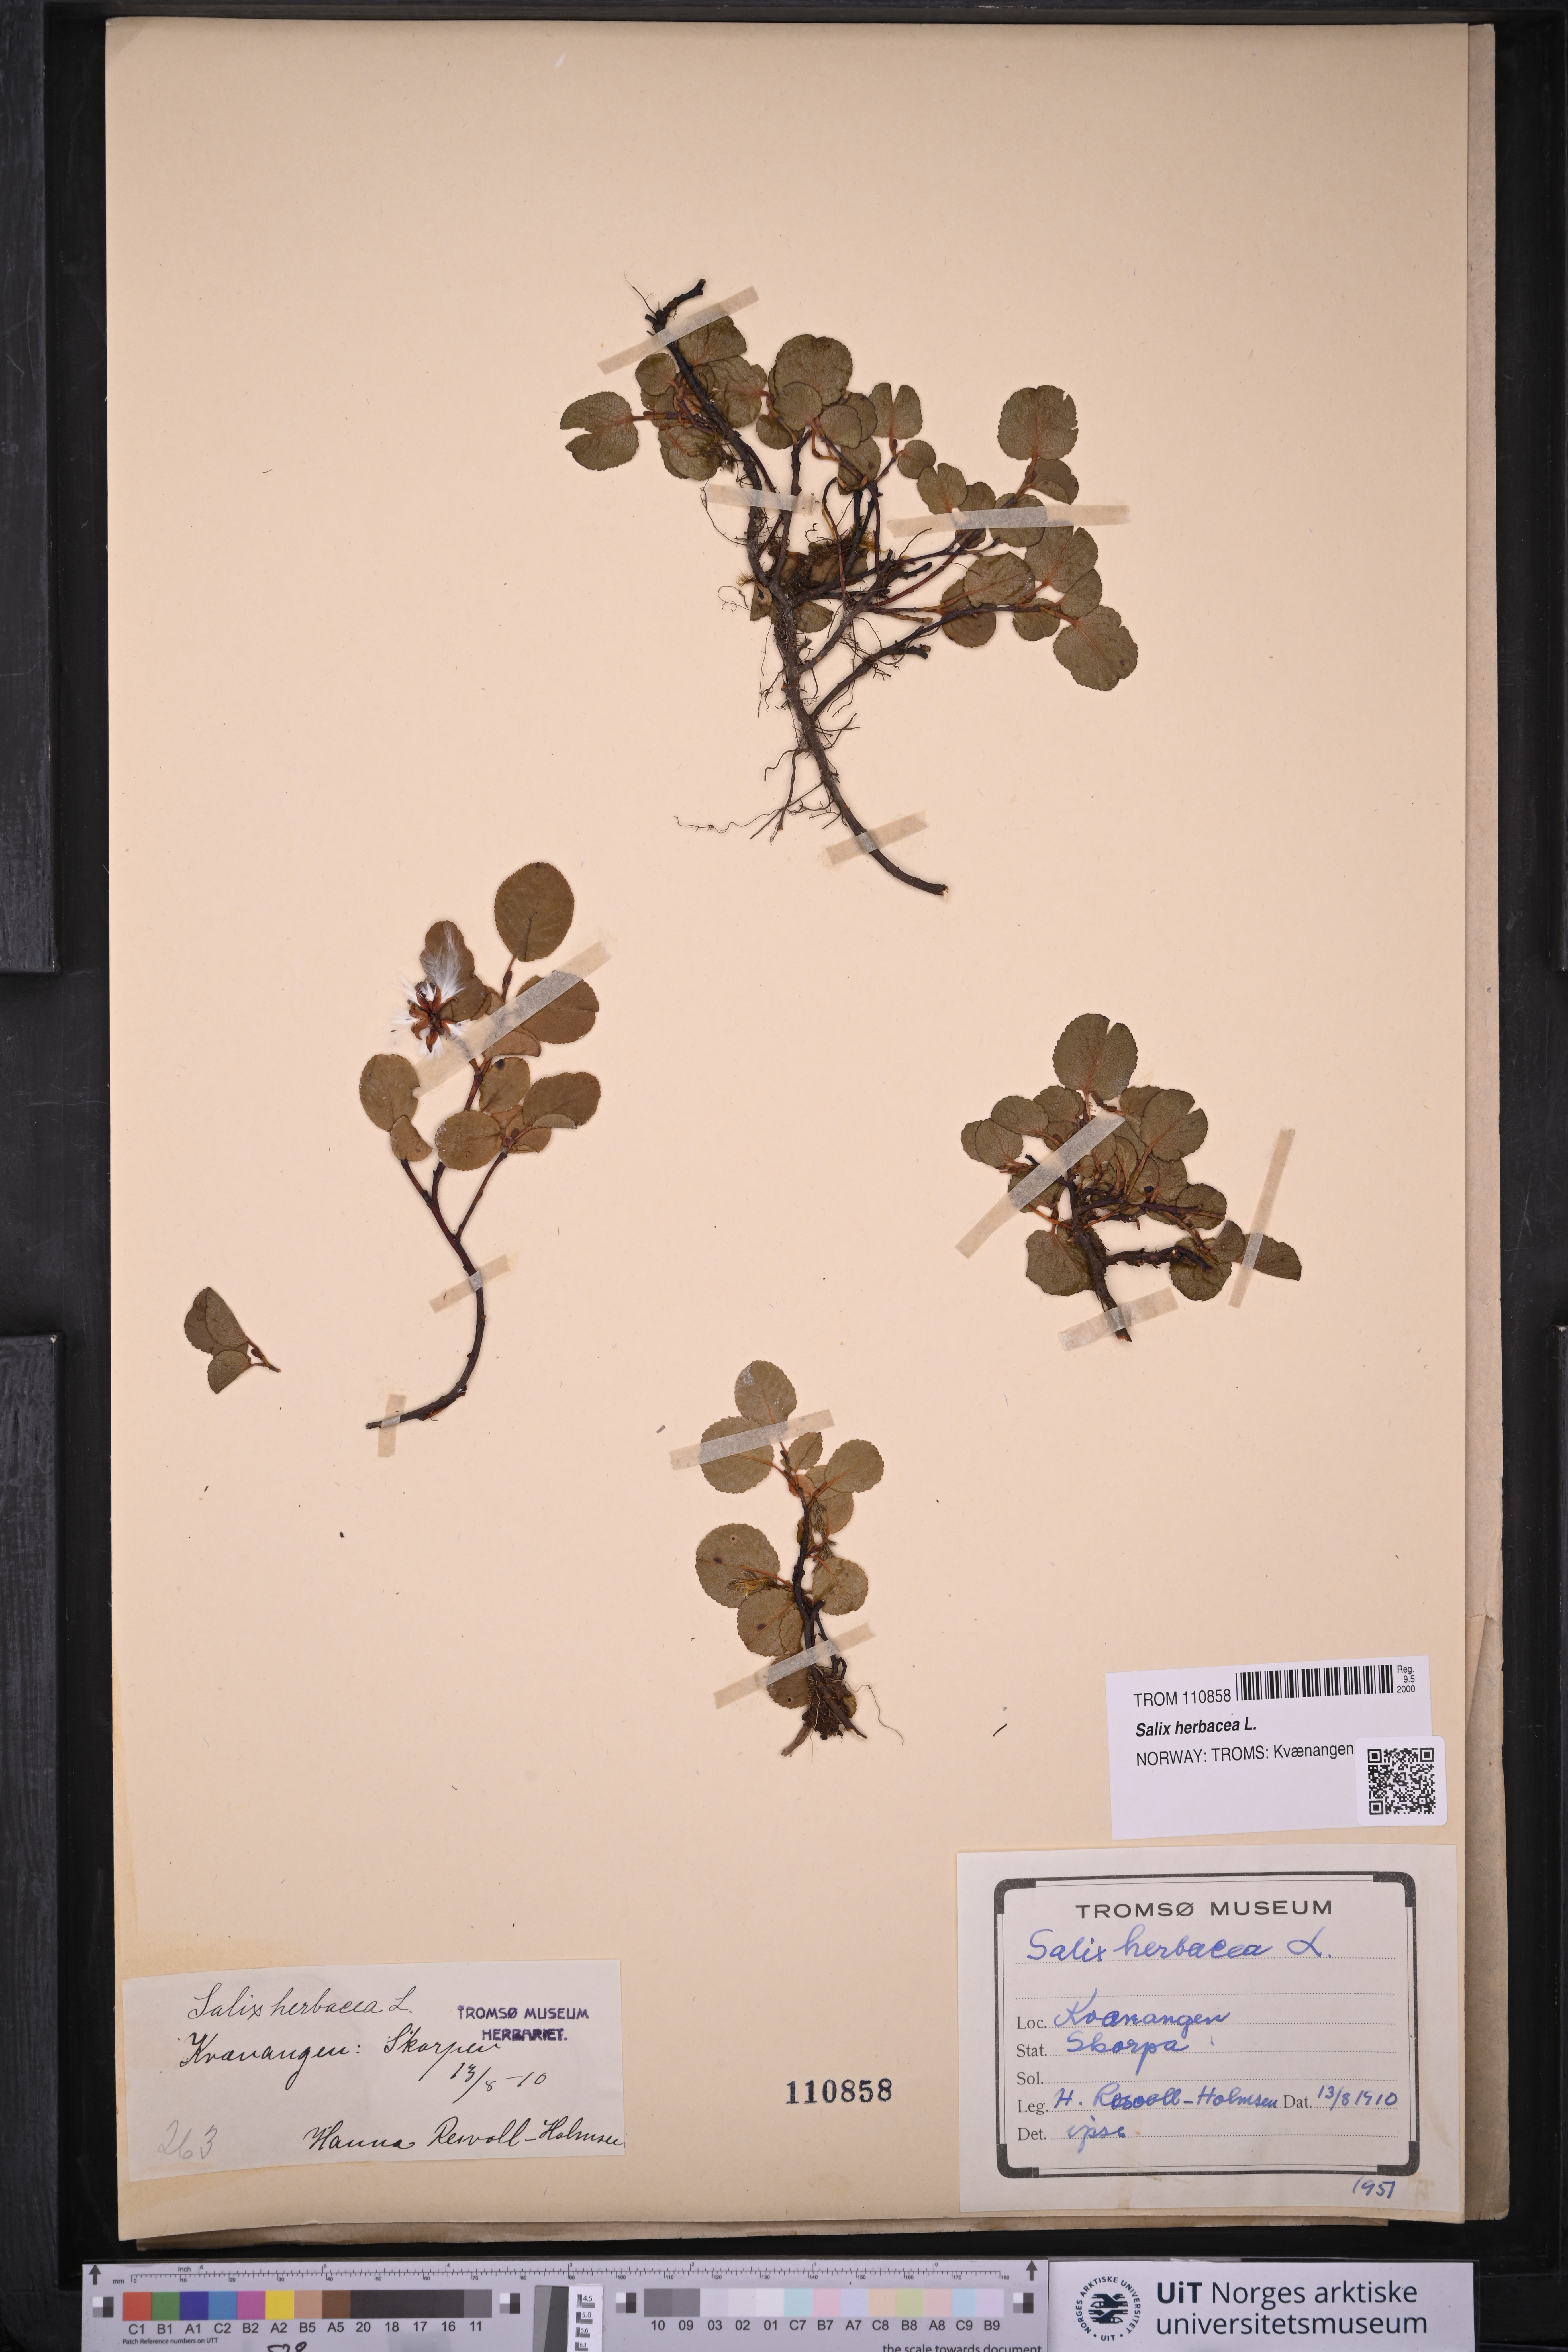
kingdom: Plantae
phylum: Tracheophyta
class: Magnoliopsida
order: Malpighiales
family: Salicaceae
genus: Salix
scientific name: Salix herbacea
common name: Dwarf willow
